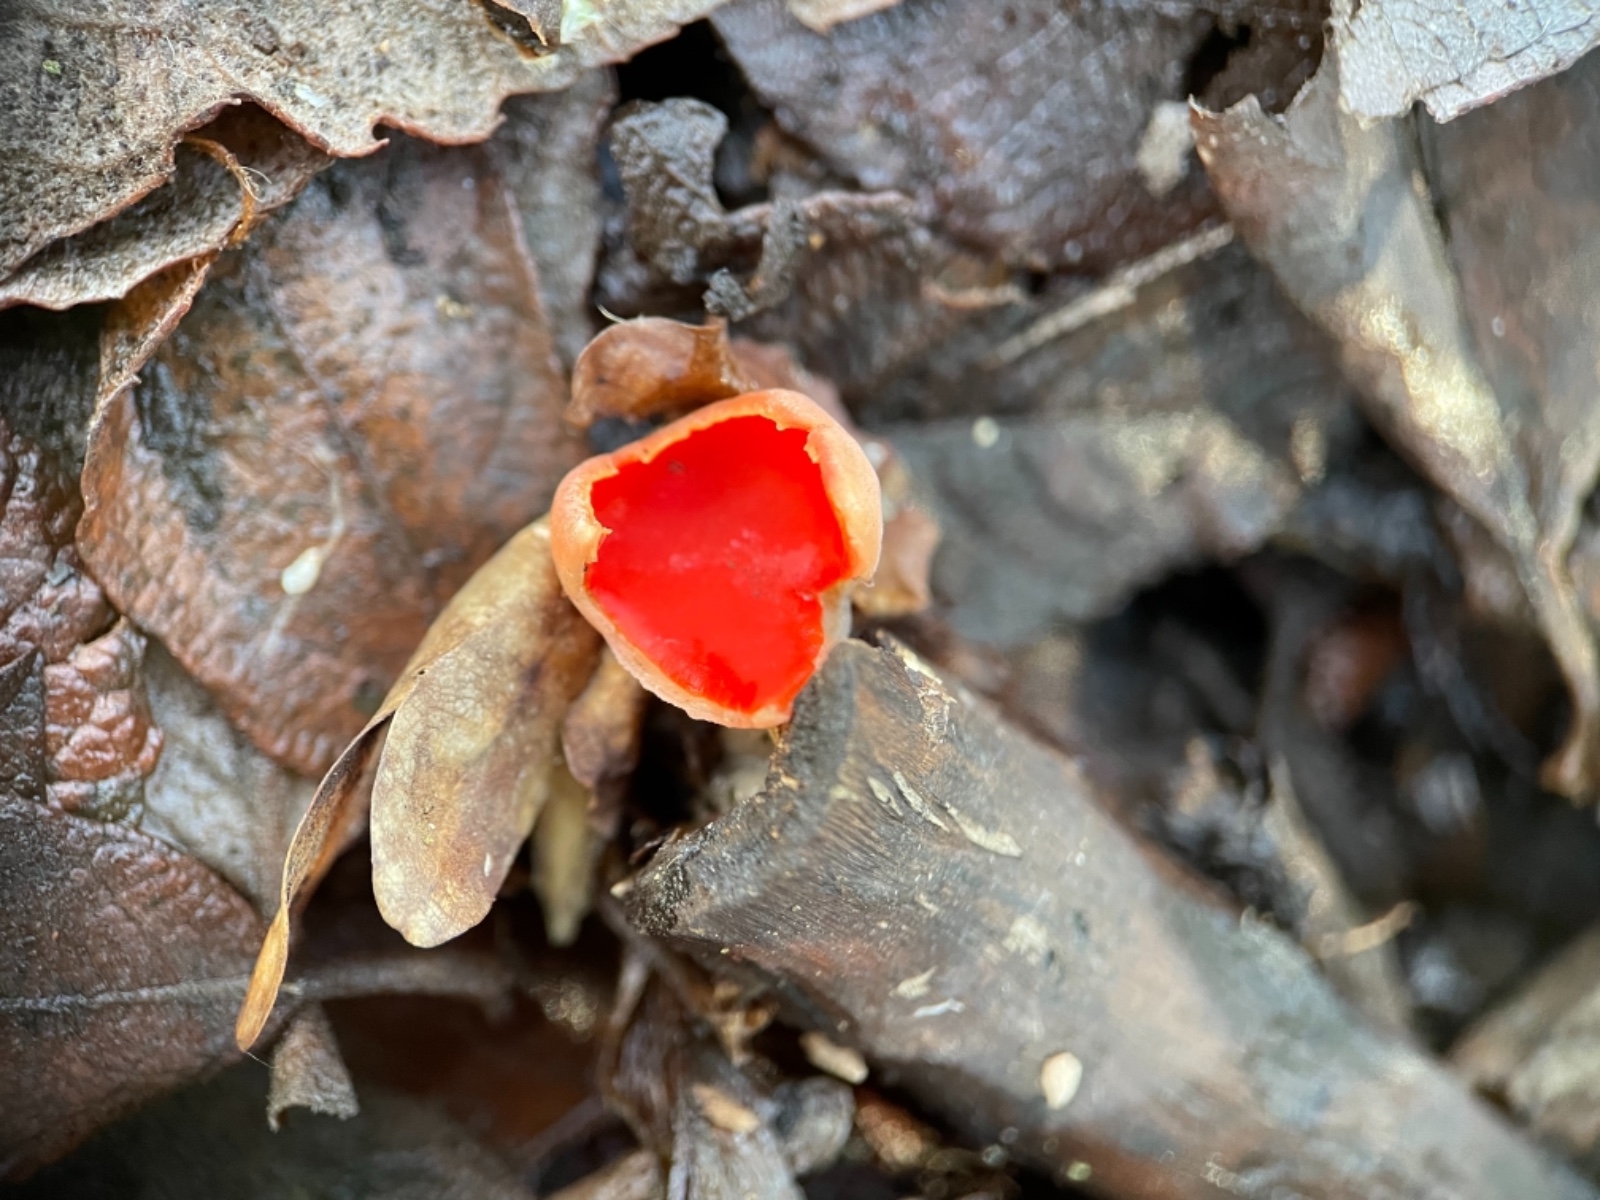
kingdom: Fungi
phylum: Ascomycota
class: Pezizomycetes
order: Pezizales
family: Sarcoscyphaceae
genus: Sarcoscypha
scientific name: Sarcoscypha austriaca
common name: krølhåret pragtbæger
